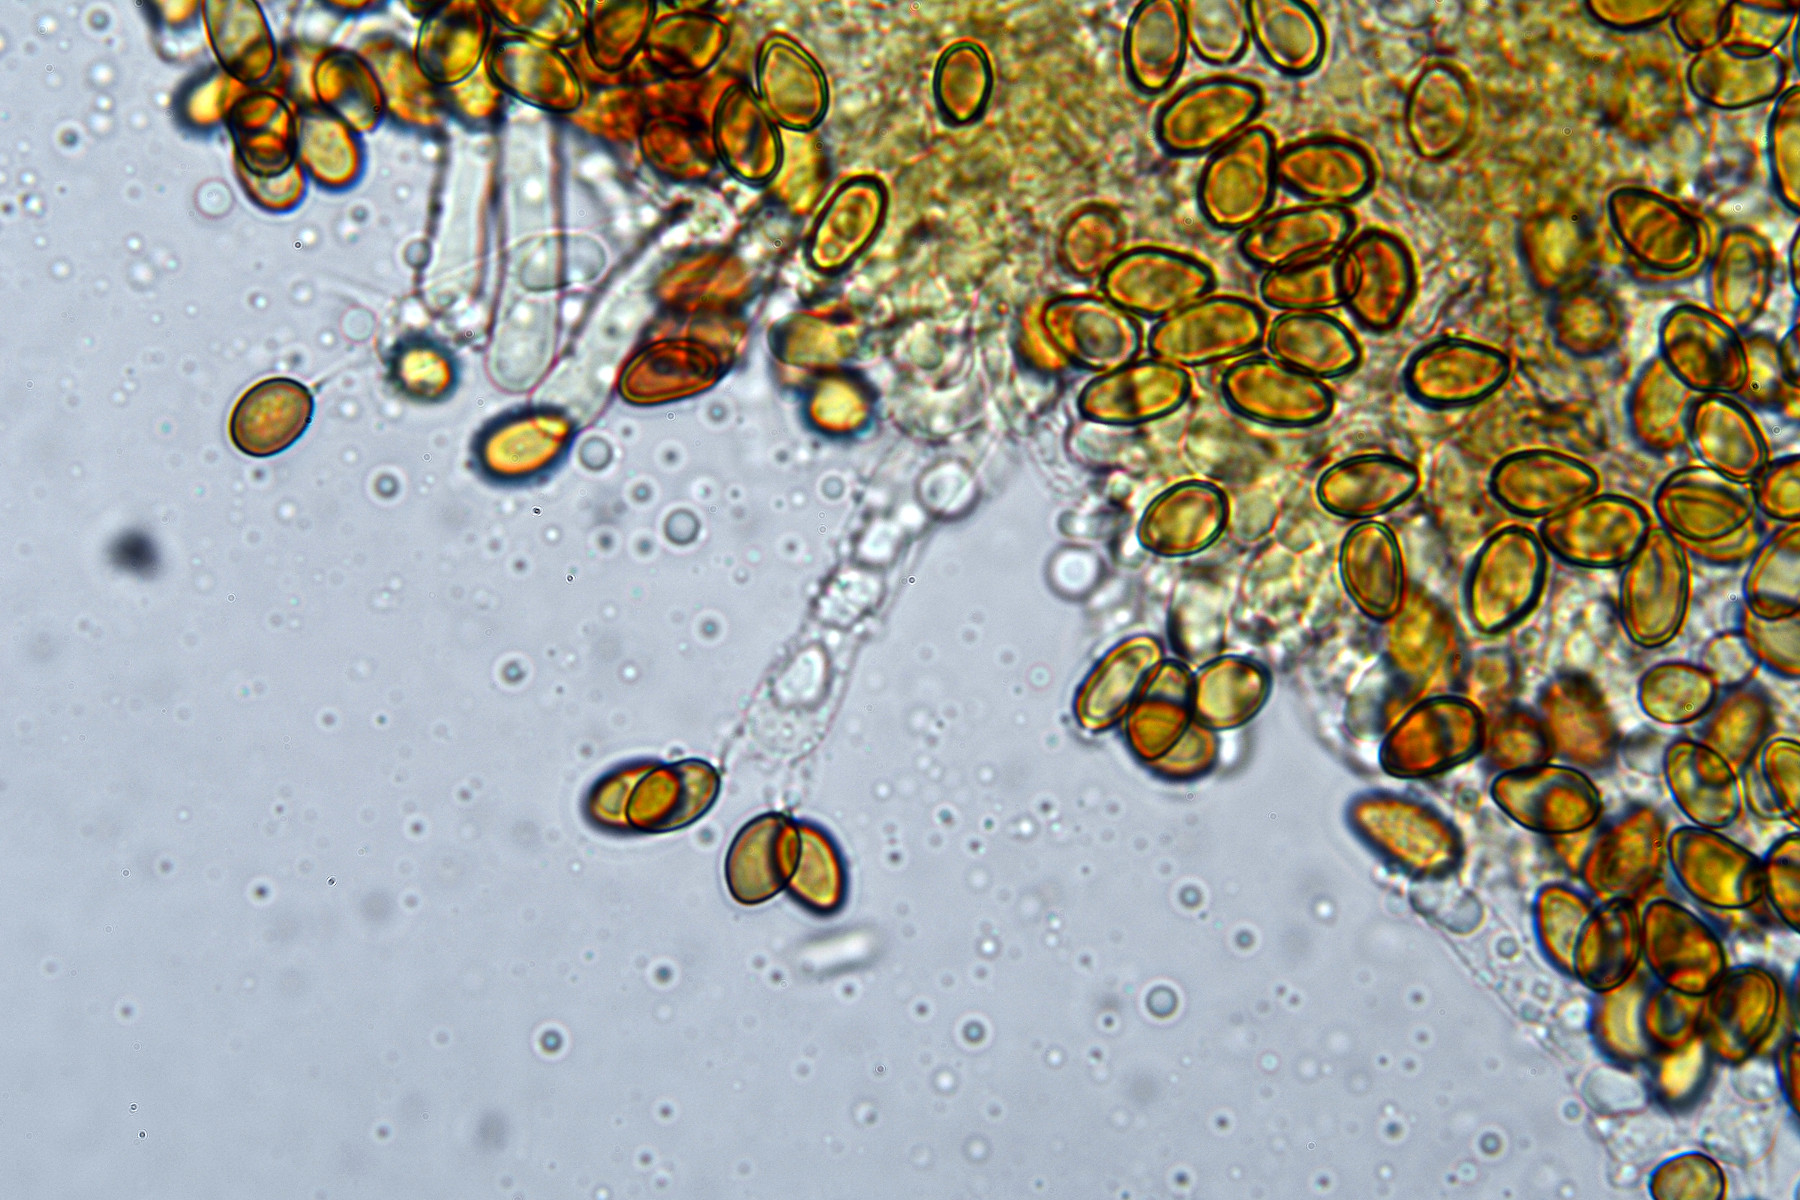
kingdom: Fungi
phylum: Basidiomycota
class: Agaricomycetes
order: Boletales
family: Coniophoraceae
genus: Coniophora
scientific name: Coniophora puteana
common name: gul tømmersvamp
